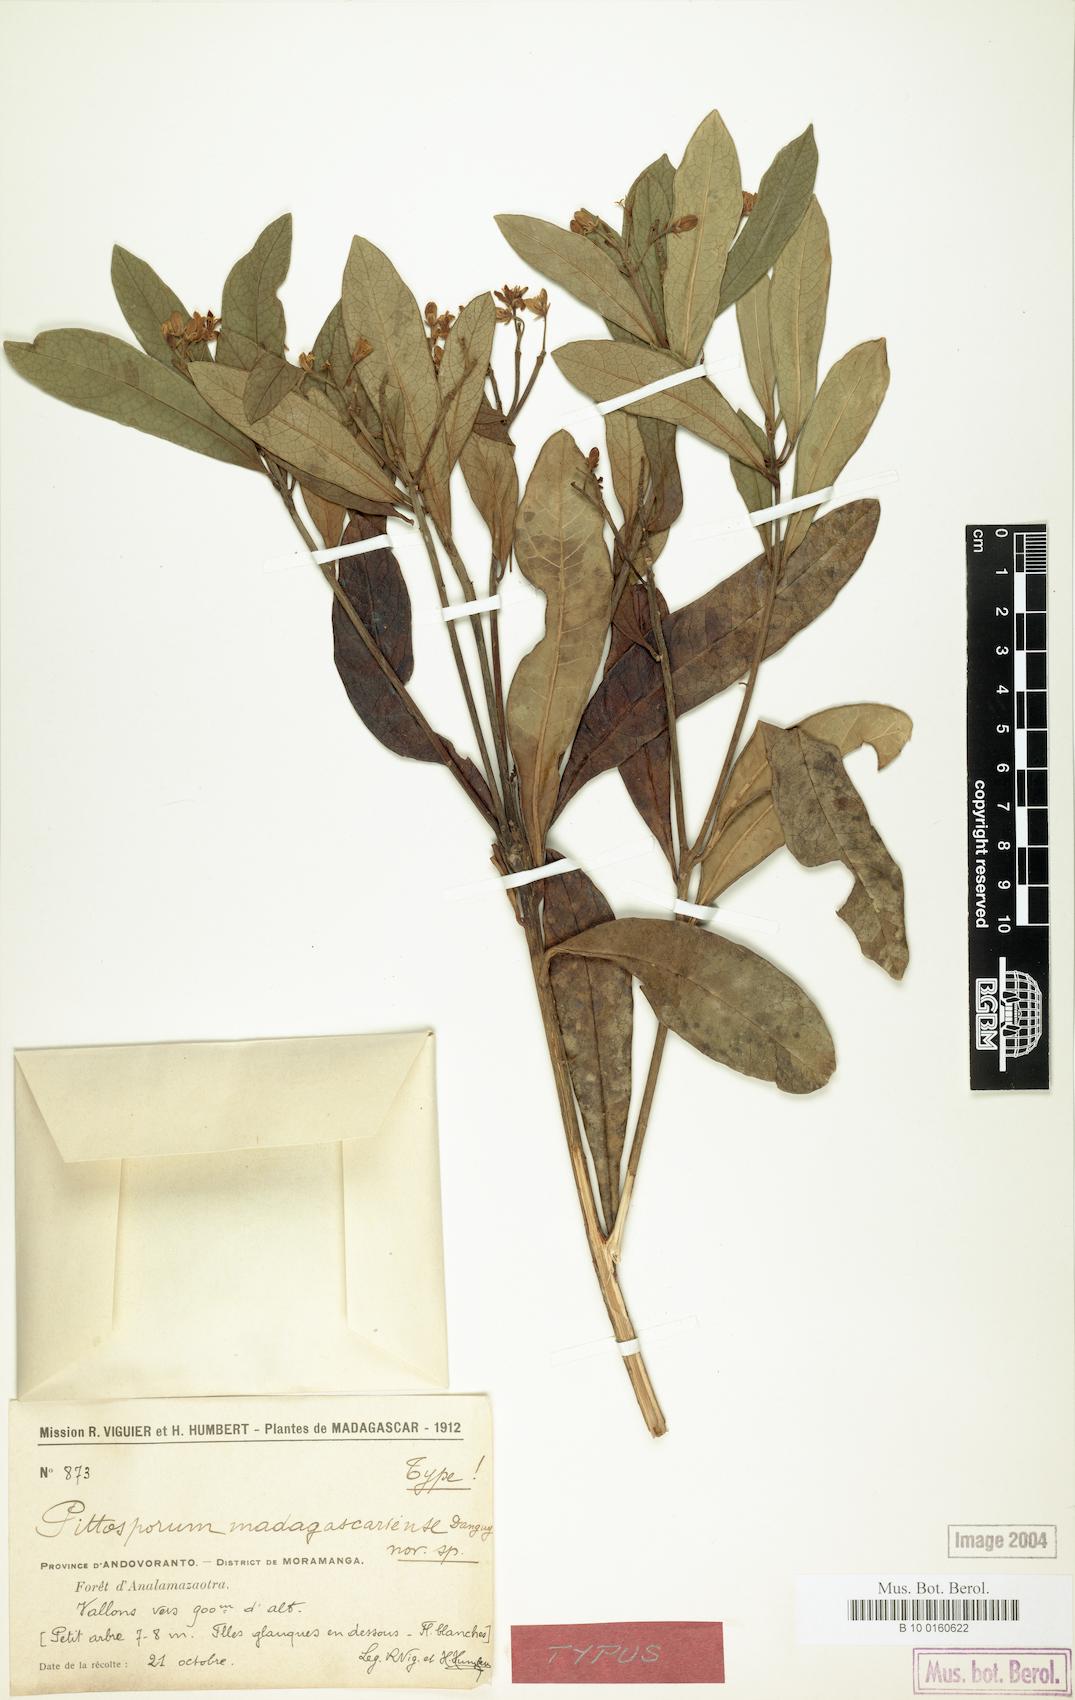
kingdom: Plantae
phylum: Tracheophyta
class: Magnoliopsida
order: Apiales
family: Pittosporaceae
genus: Pittosporum
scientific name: Pittosporum ochrosiifolium
